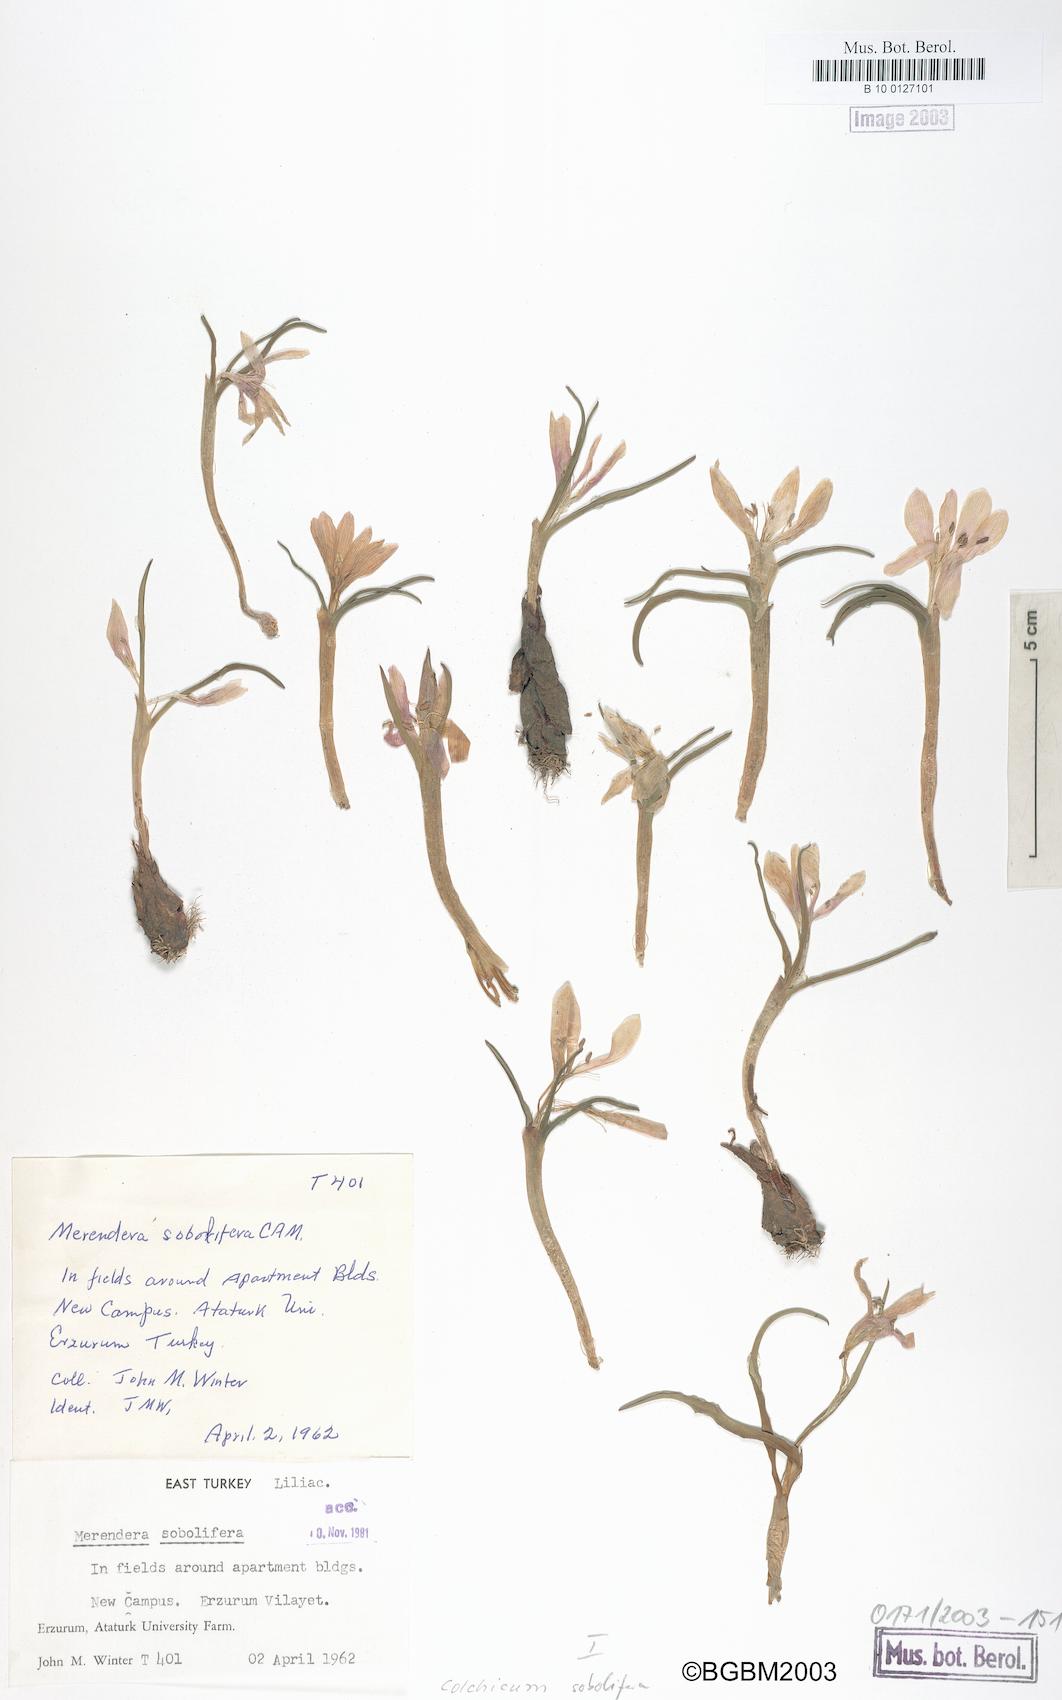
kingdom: Plantae
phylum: Tracheophyta
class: Liliopsida
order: Liliales
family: Colchicaceae
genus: Colchicum
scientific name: Colchicum soboliferum
